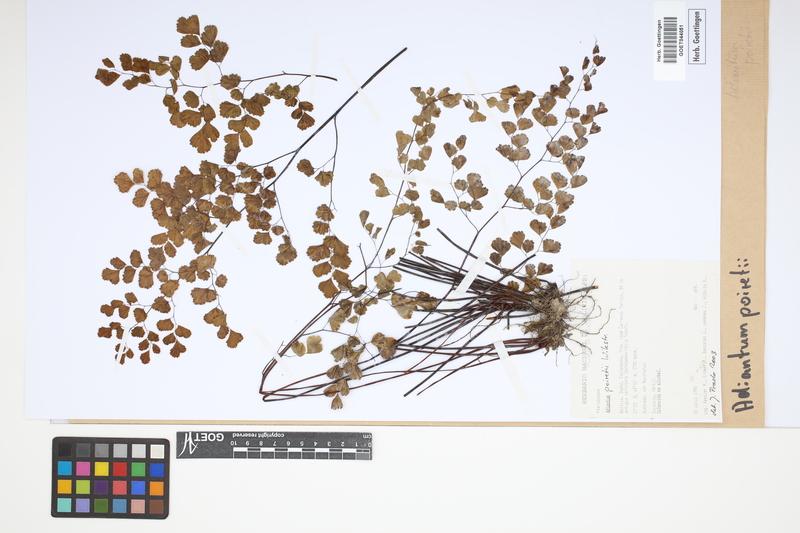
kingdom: Plantae
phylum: Tracheophyta
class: Polypodiopsida
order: Polypodiales
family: Pteridaceae
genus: Adiantum
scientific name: Adiantum poiretii
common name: Mexican maidenhair
